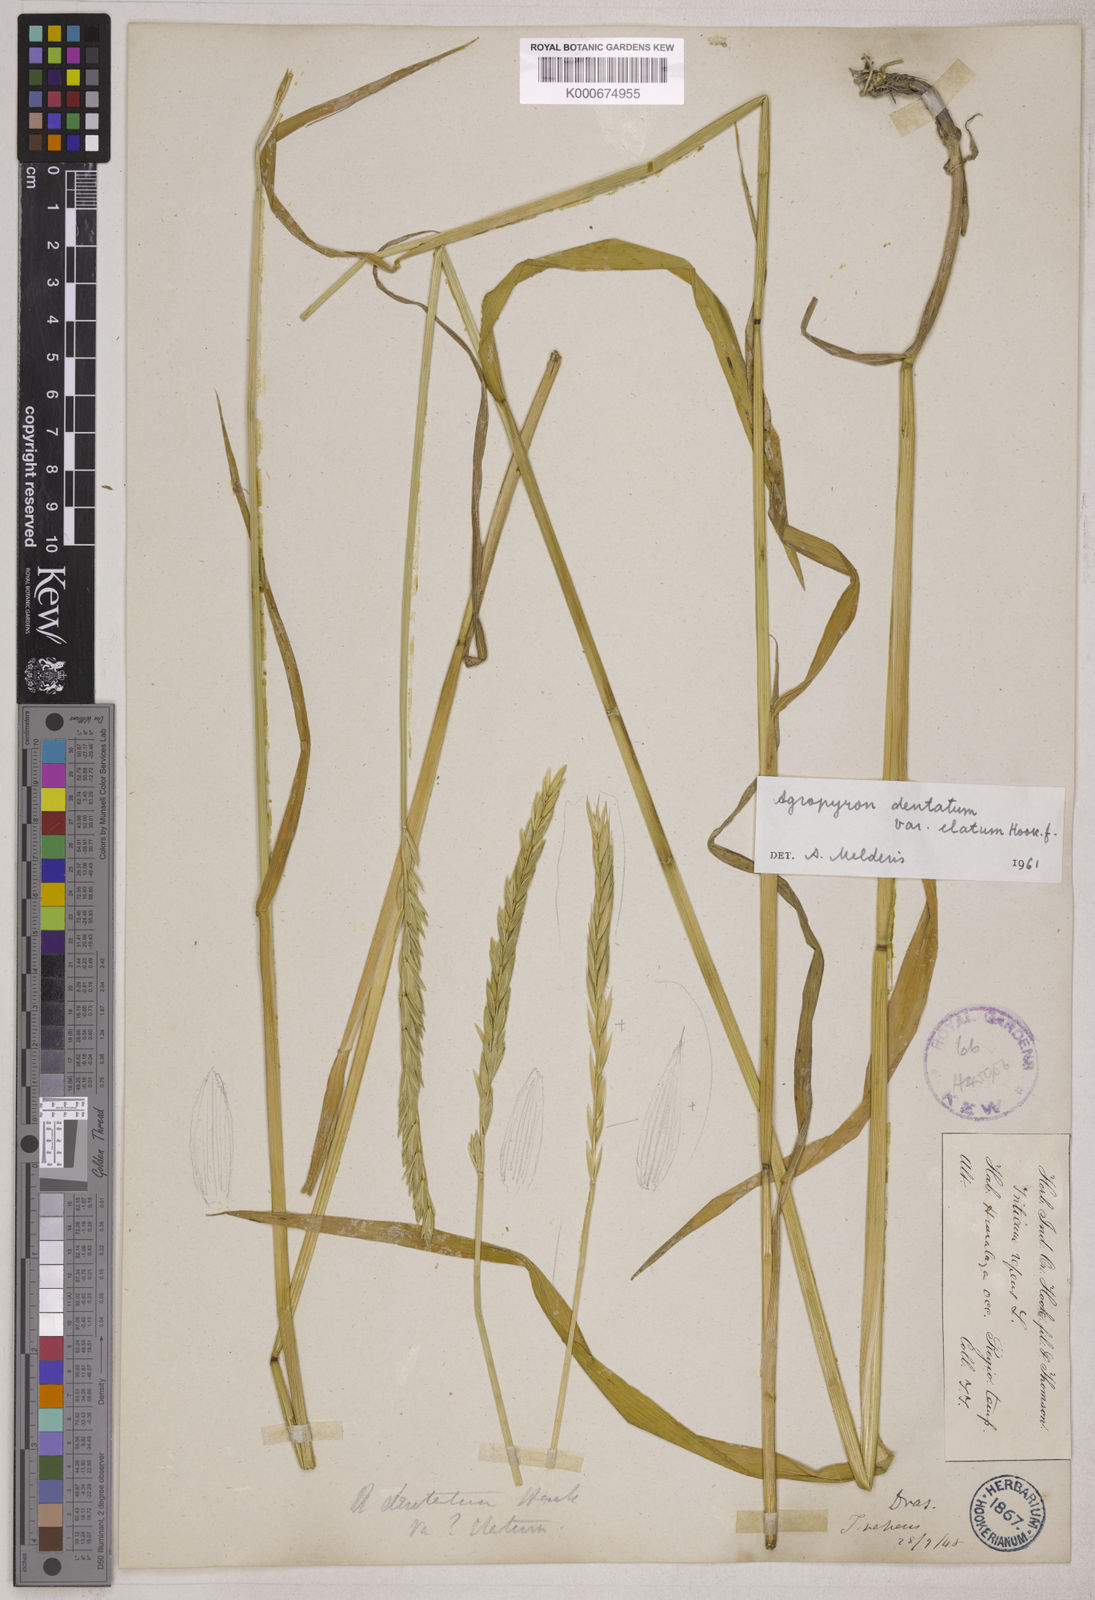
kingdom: Plantae
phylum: Tracheophyta
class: Liliopsida
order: Poales
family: Poaceae
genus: Elymus
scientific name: Elymus
